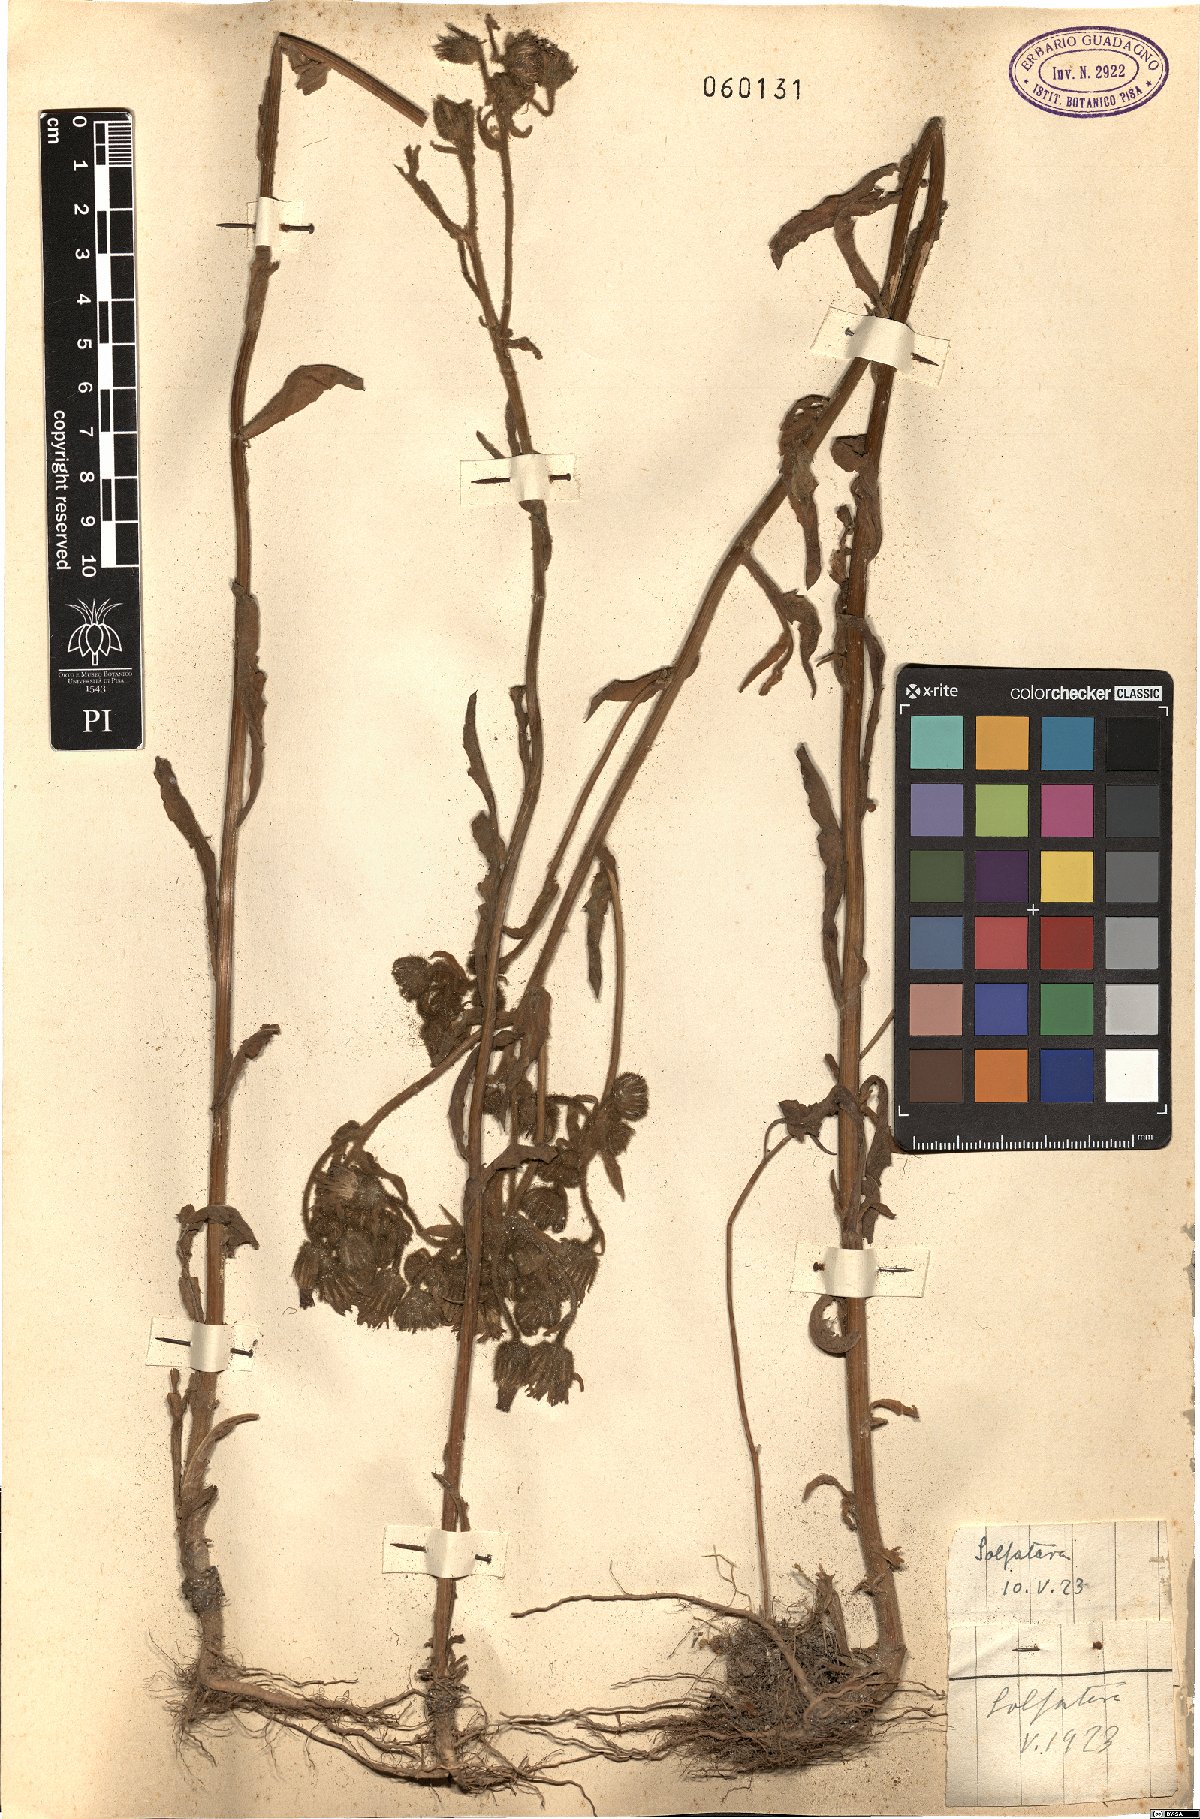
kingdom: Plantae
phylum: Tracheophyta
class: Magnoliopsida
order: Asterales
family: Asteraceae
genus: Andryala
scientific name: Andryala integrifolia
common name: Common andryala
